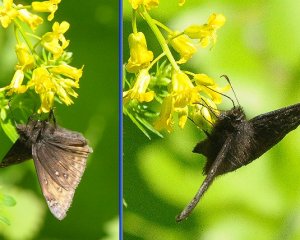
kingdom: Animalia
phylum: Arthropoda
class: Insecta
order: Lepidoptera
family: Hesperiidae
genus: Gesta
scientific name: Gesta
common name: Juvenal's Duskywing
